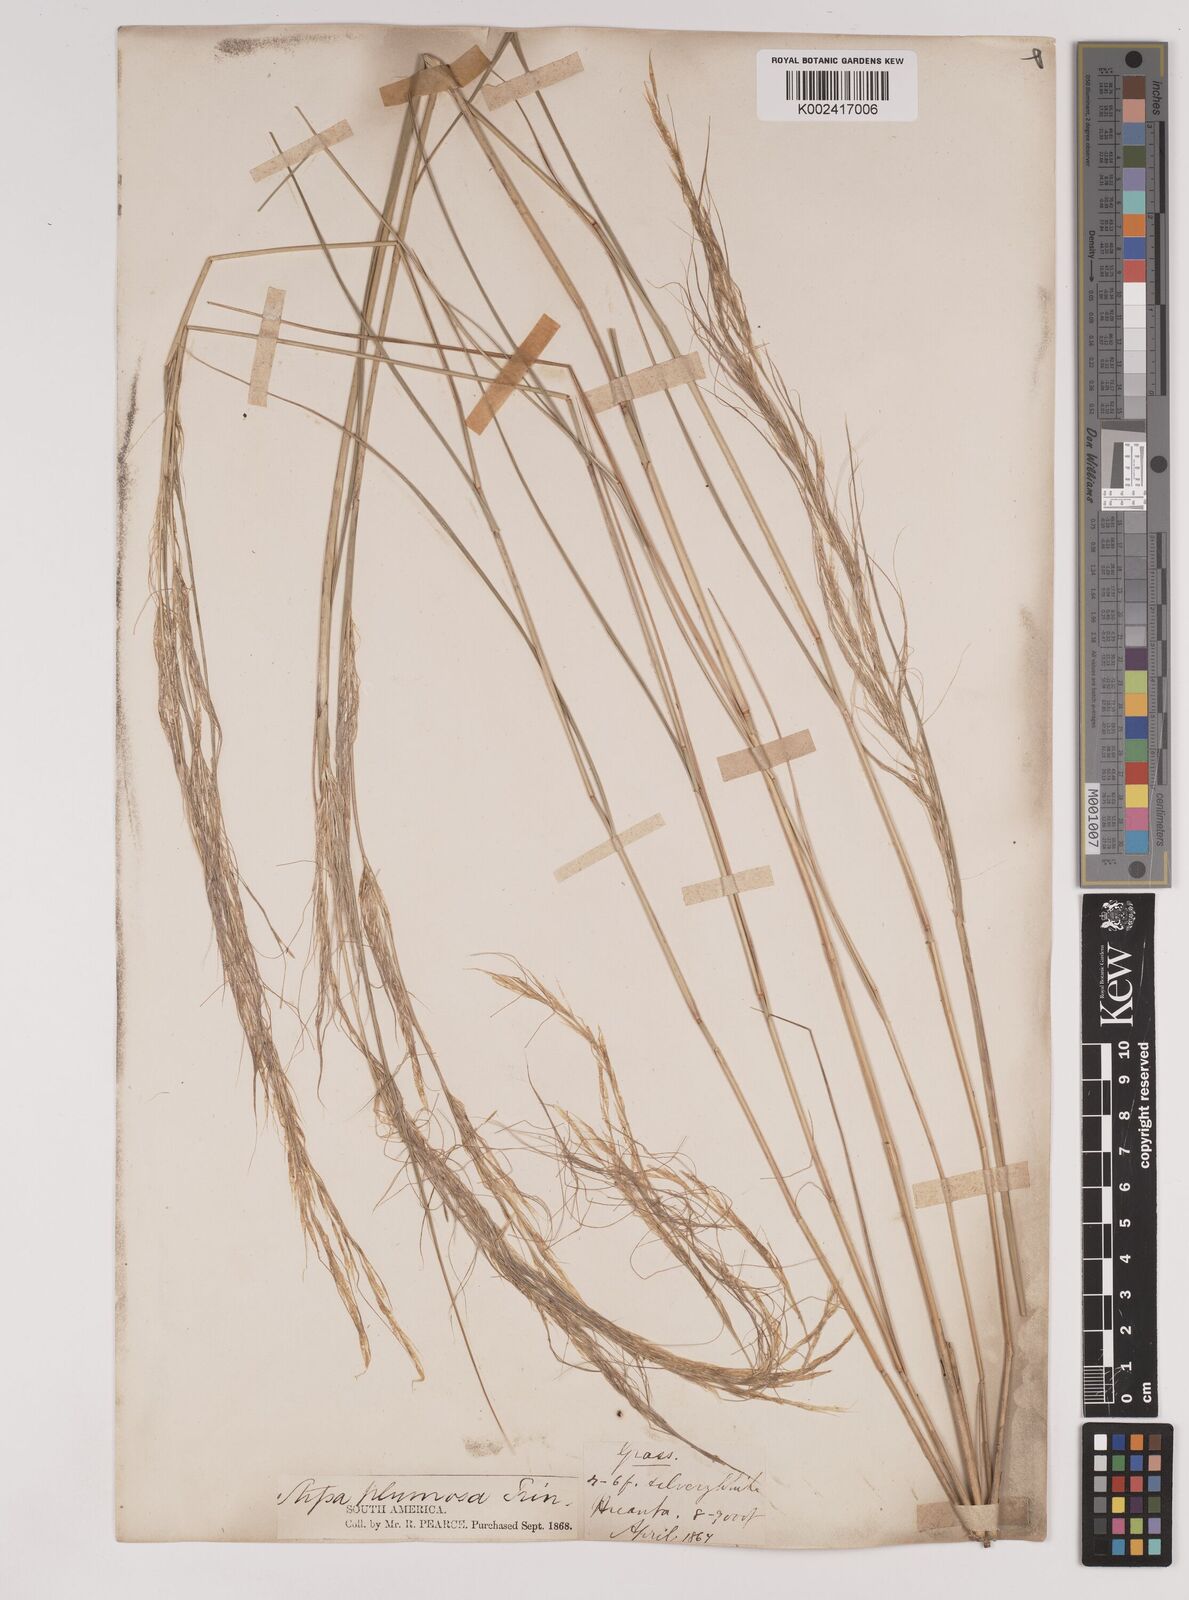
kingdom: Plantae
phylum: Tracheophyta
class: Liliopsida
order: Poales
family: Poaceae
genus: Stipa
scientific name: Stipa plumosa
